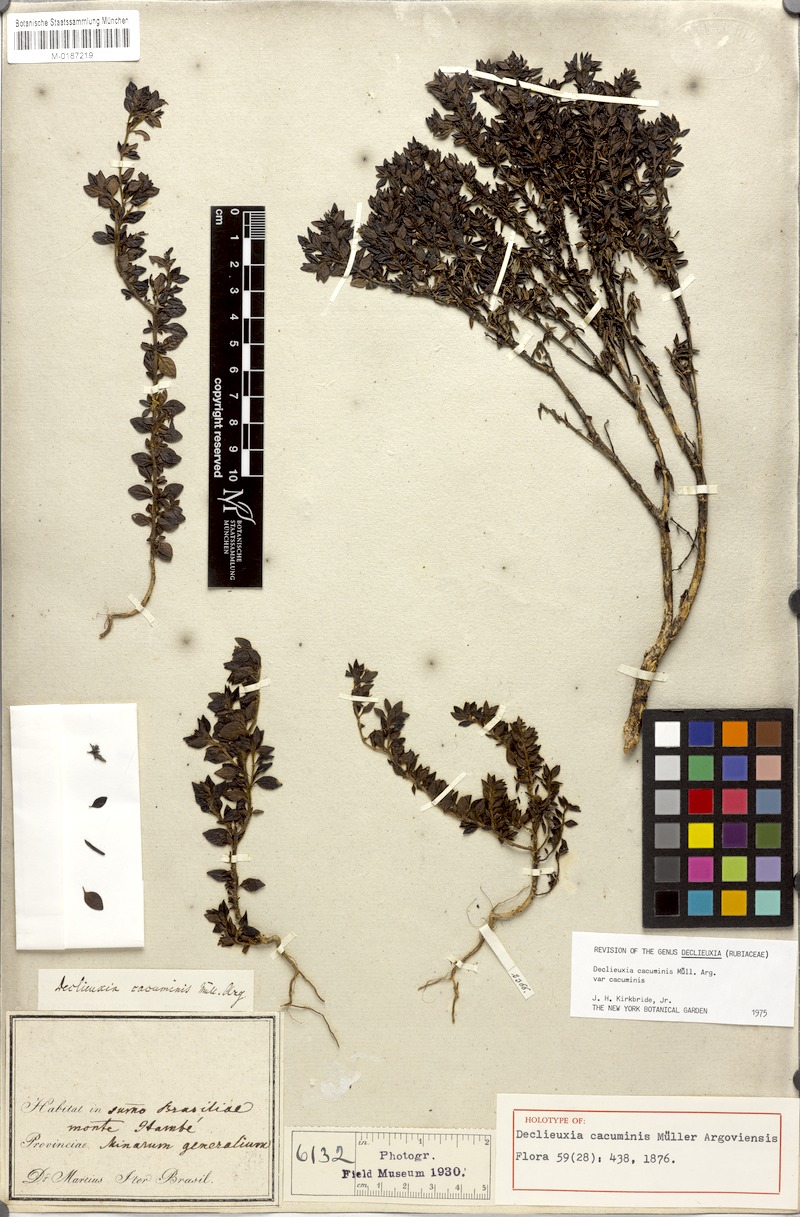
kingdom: Plantae
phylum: Tracheophyta
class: Magnoliopsida
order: Gentianales
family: Rubiaceae
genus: Declieuxia
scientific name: Declieuxia cacuminis
